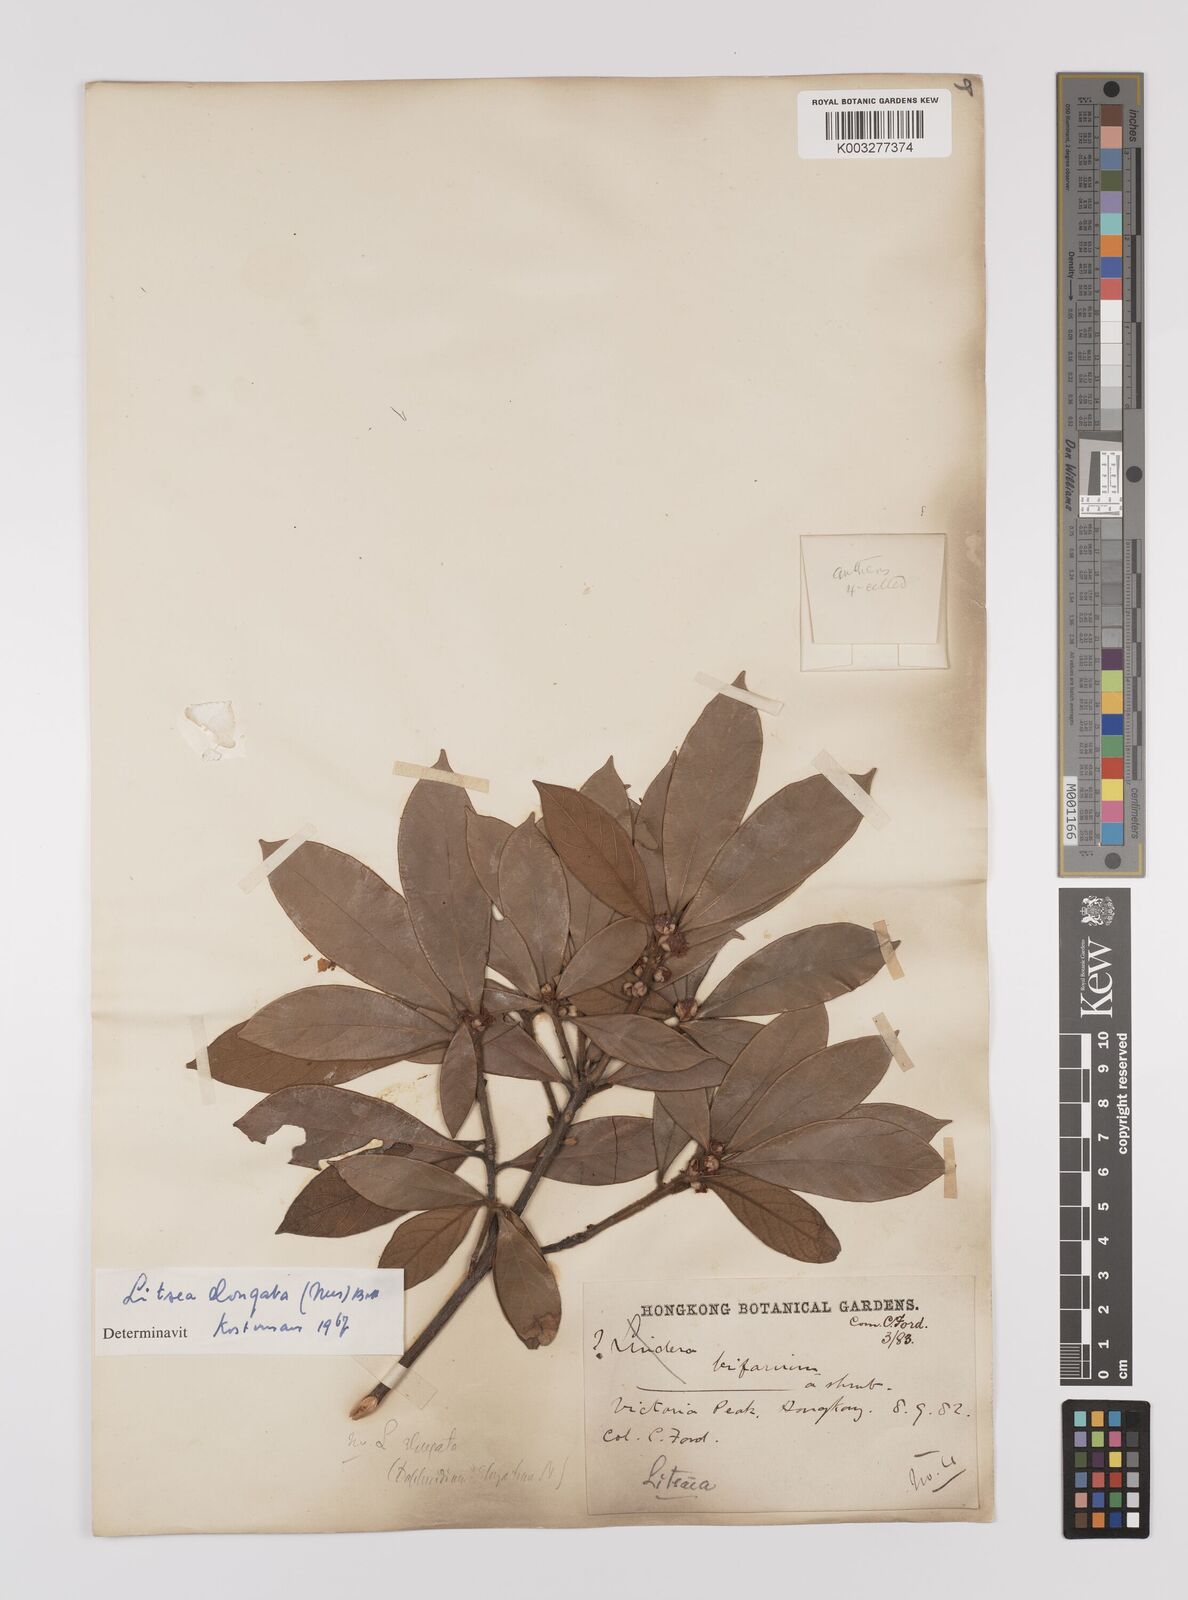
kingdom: Plantae
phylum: Tracheophyta
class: Magnoliopsida
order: Laurales
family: Lauraceae
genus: Litsea
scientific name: Litsea elongata
